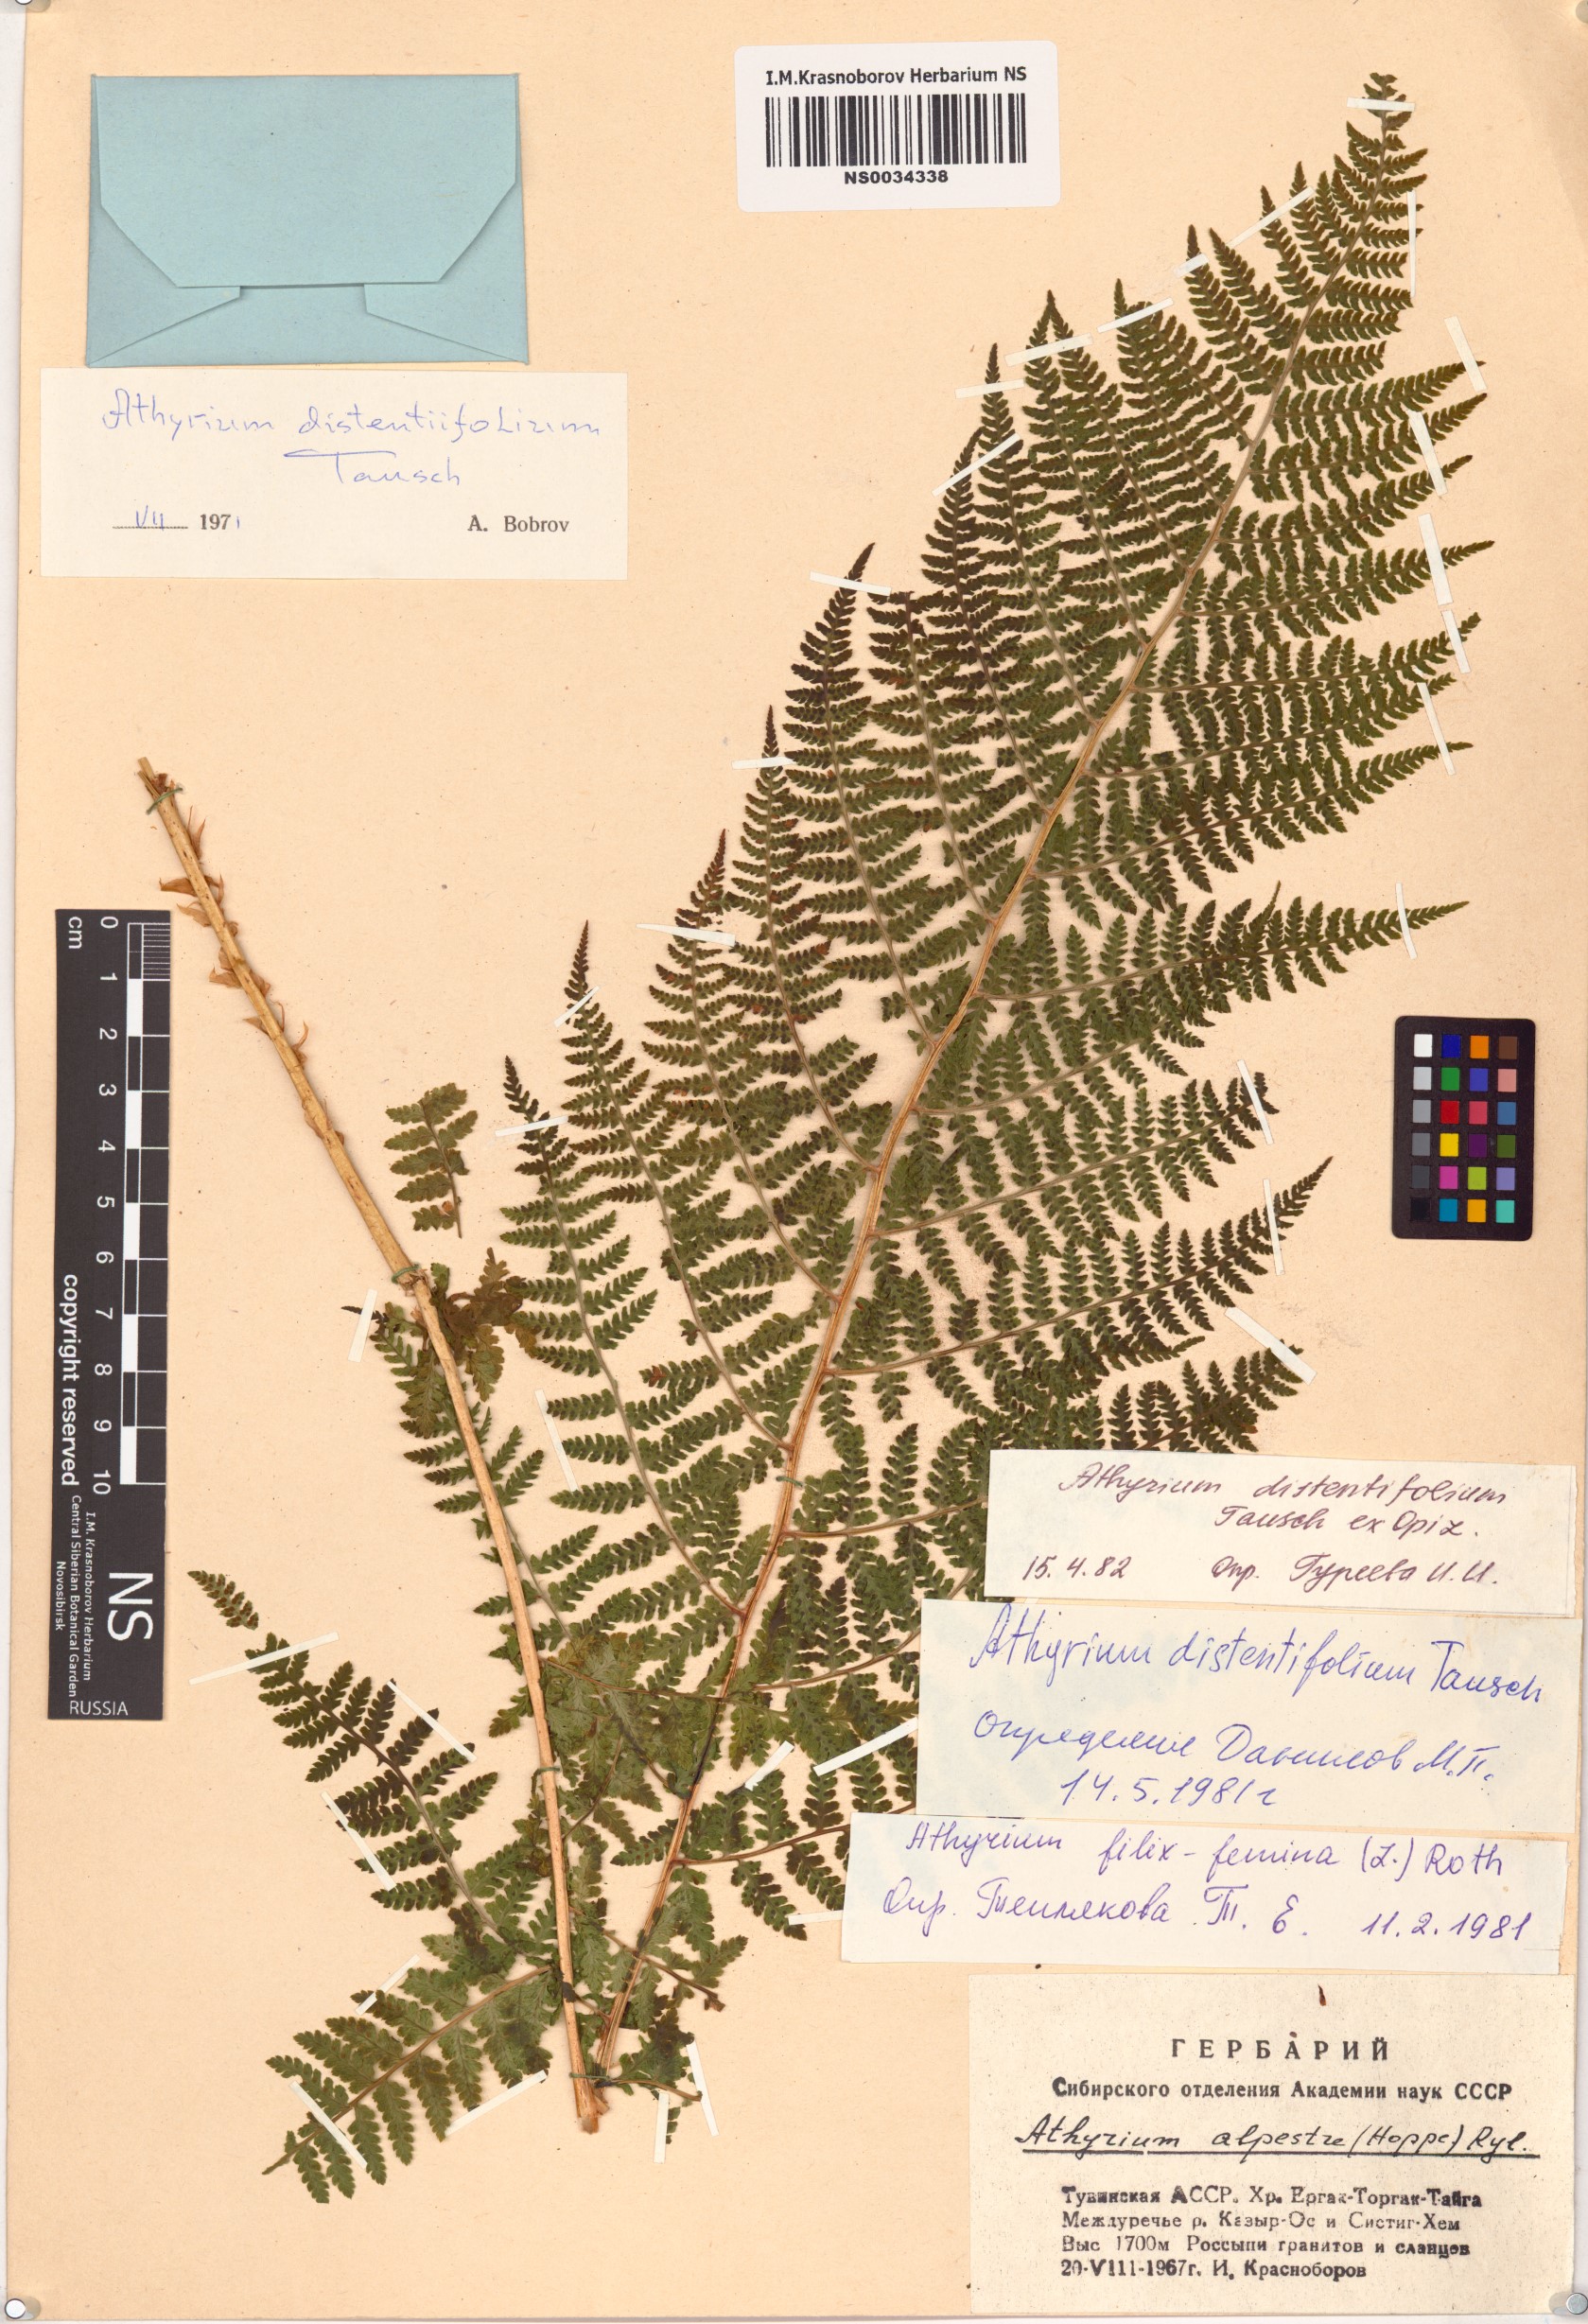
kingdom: Plantae
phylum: Tracheophyta
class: Polypodiopsida
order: Polypodiales
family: Athyriaceae
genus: Pseudathyrium
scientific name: Pseudathyrium alpestre
